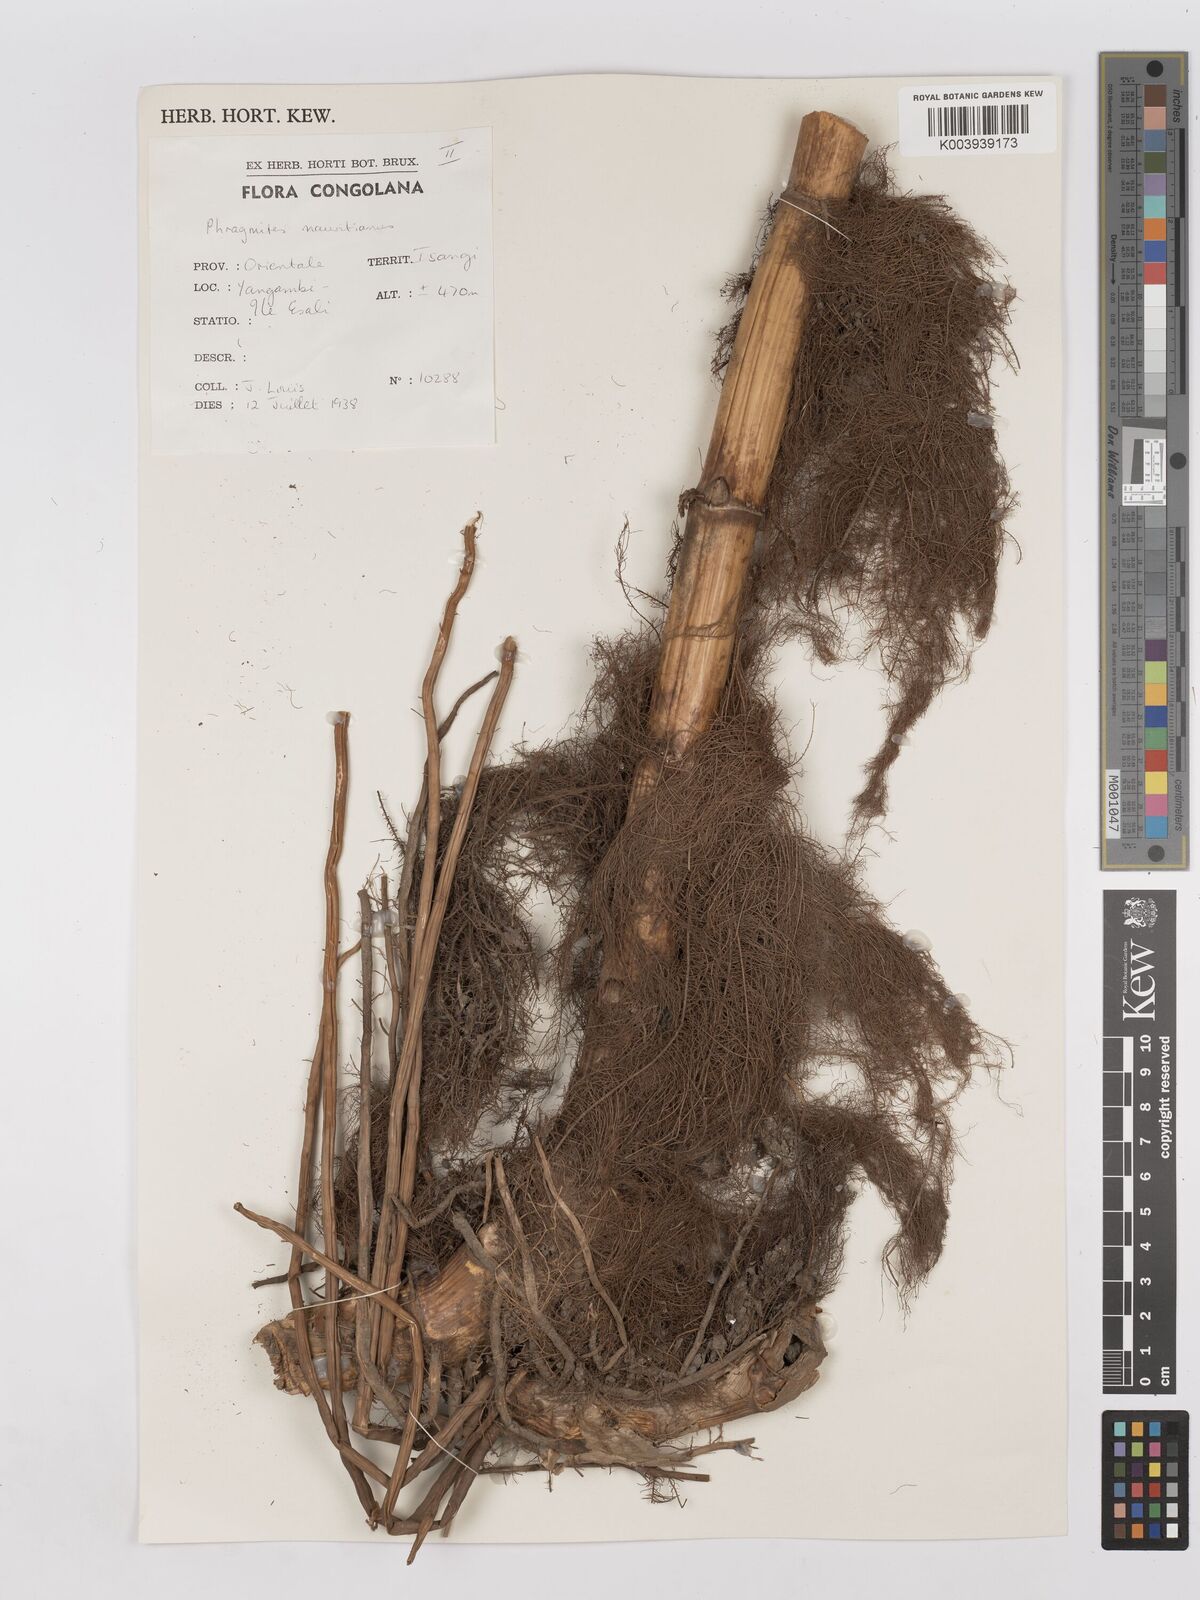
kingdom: Plantae
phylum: Tracheophyta
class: Liliopsida
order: Poales
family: Poaceae
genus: Phragmites
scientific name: Phragmites mauritianus
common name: Reed grass
